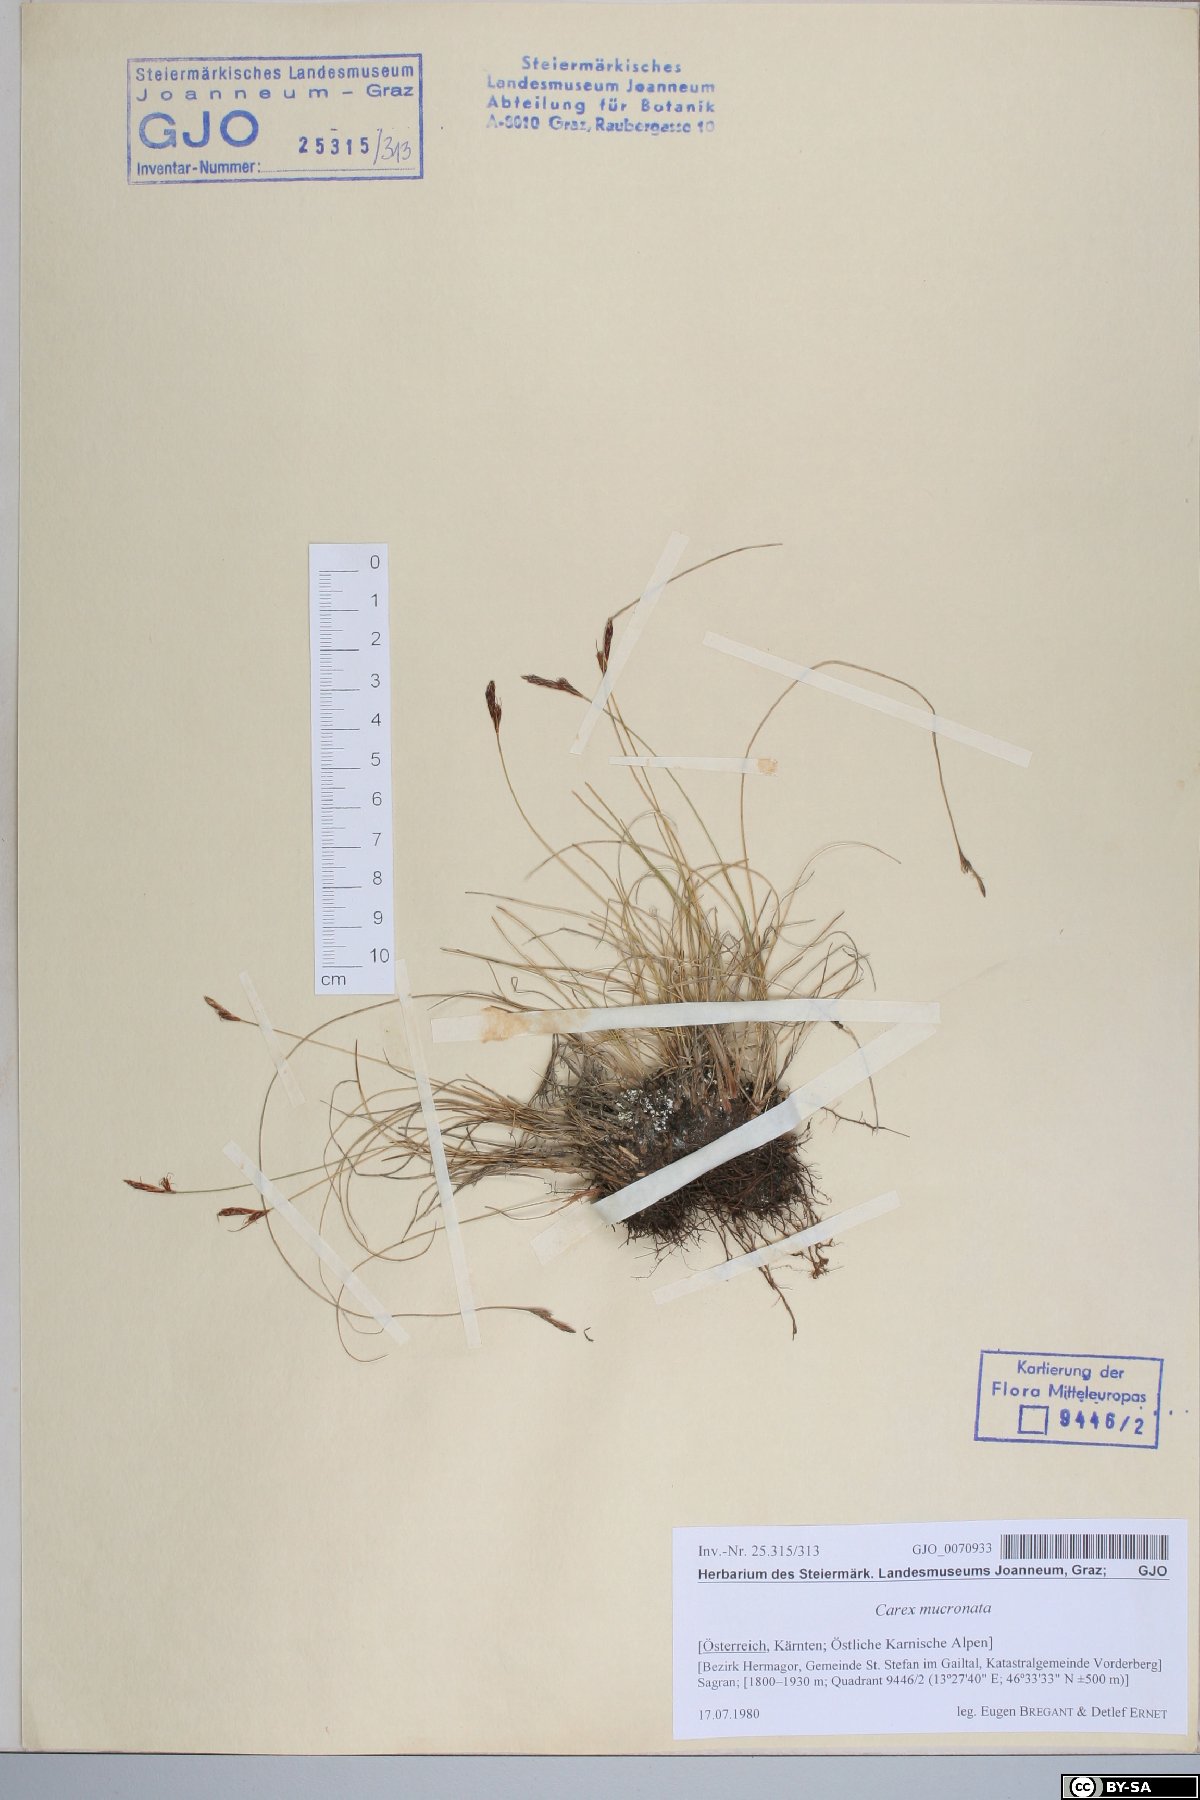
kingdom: Plantae
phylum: Tracheophyta
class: Liliopsida
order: Poales
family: Cyperaceae
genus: Carex
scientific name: Carex mucronata
